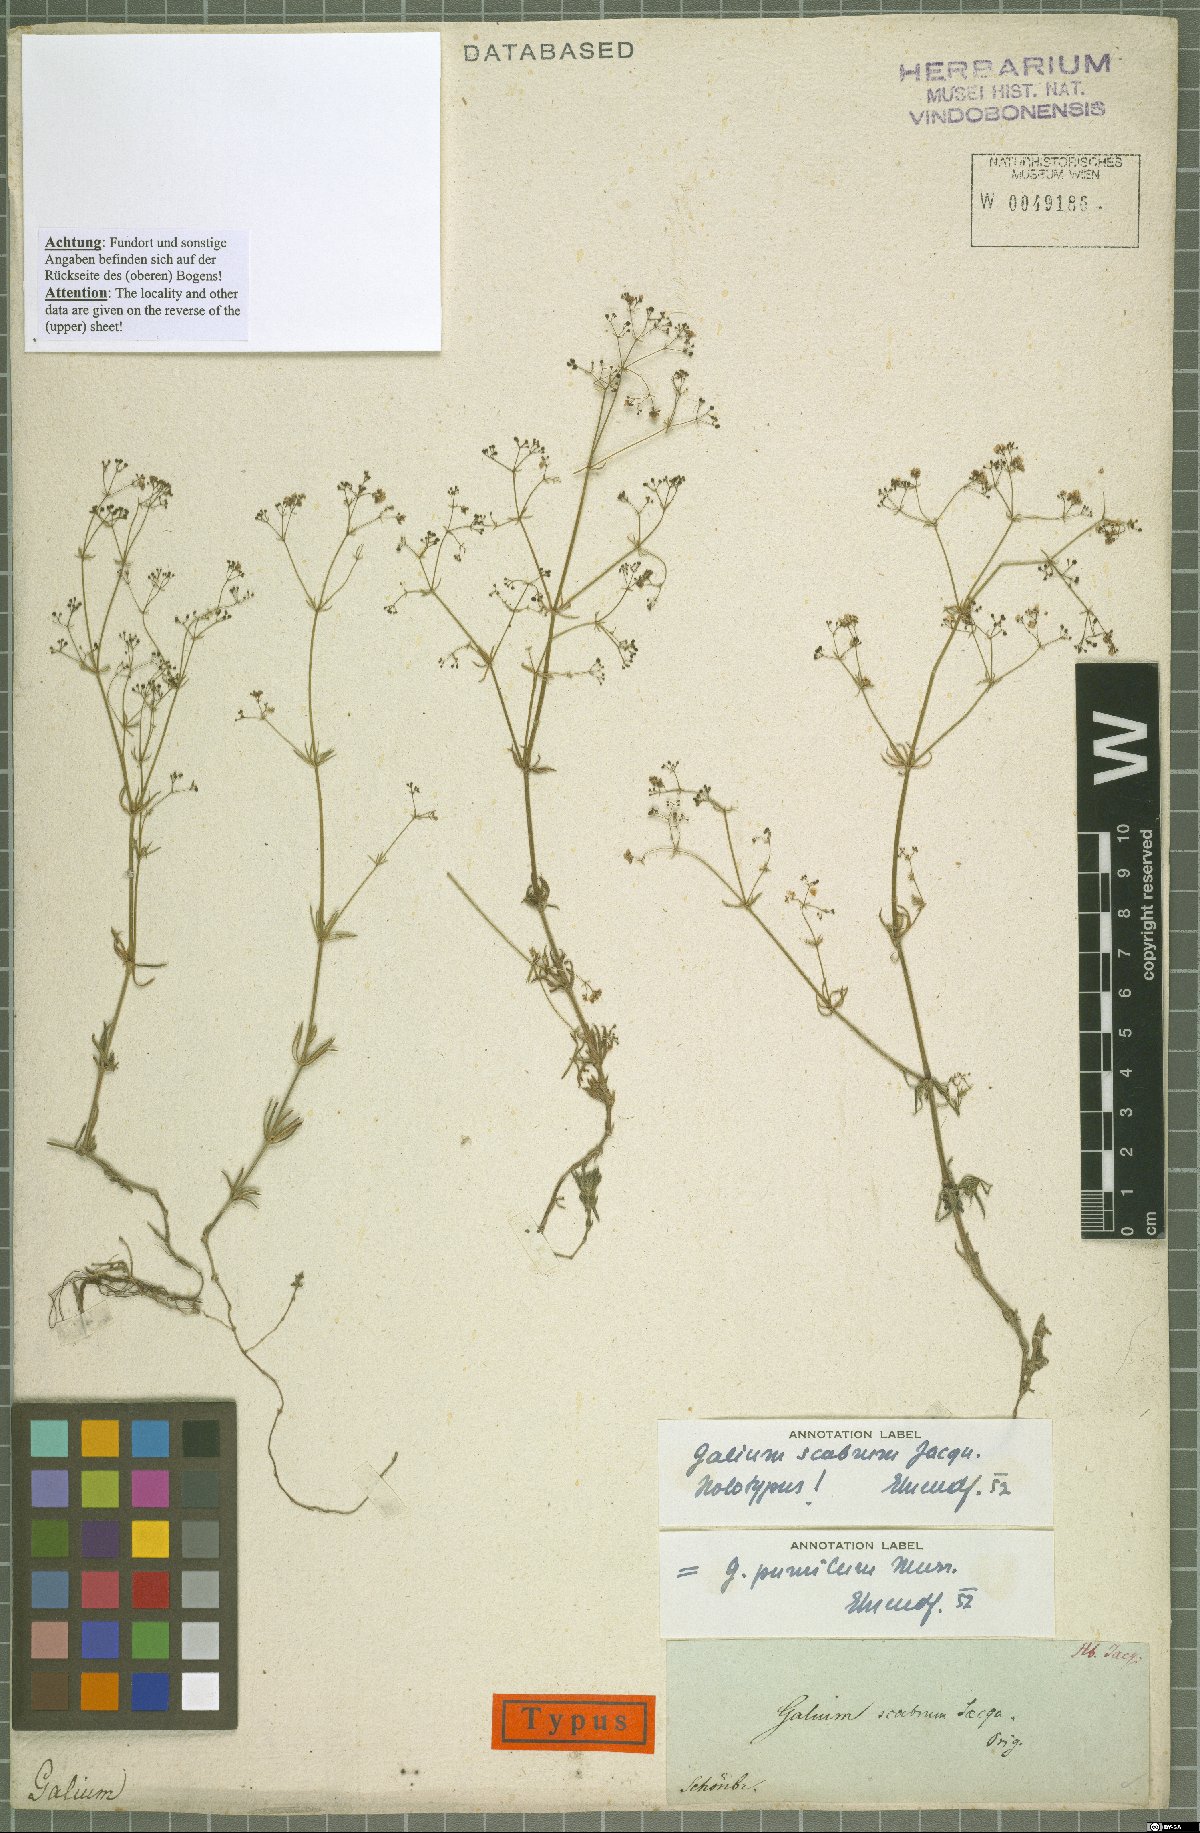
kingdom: Plantae
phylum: Tracheophyta
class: Magnoliopsida
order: Gentianales
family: Rubiaceae
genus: Galium
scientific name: Galium pumilum
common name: Slender bedstraw
